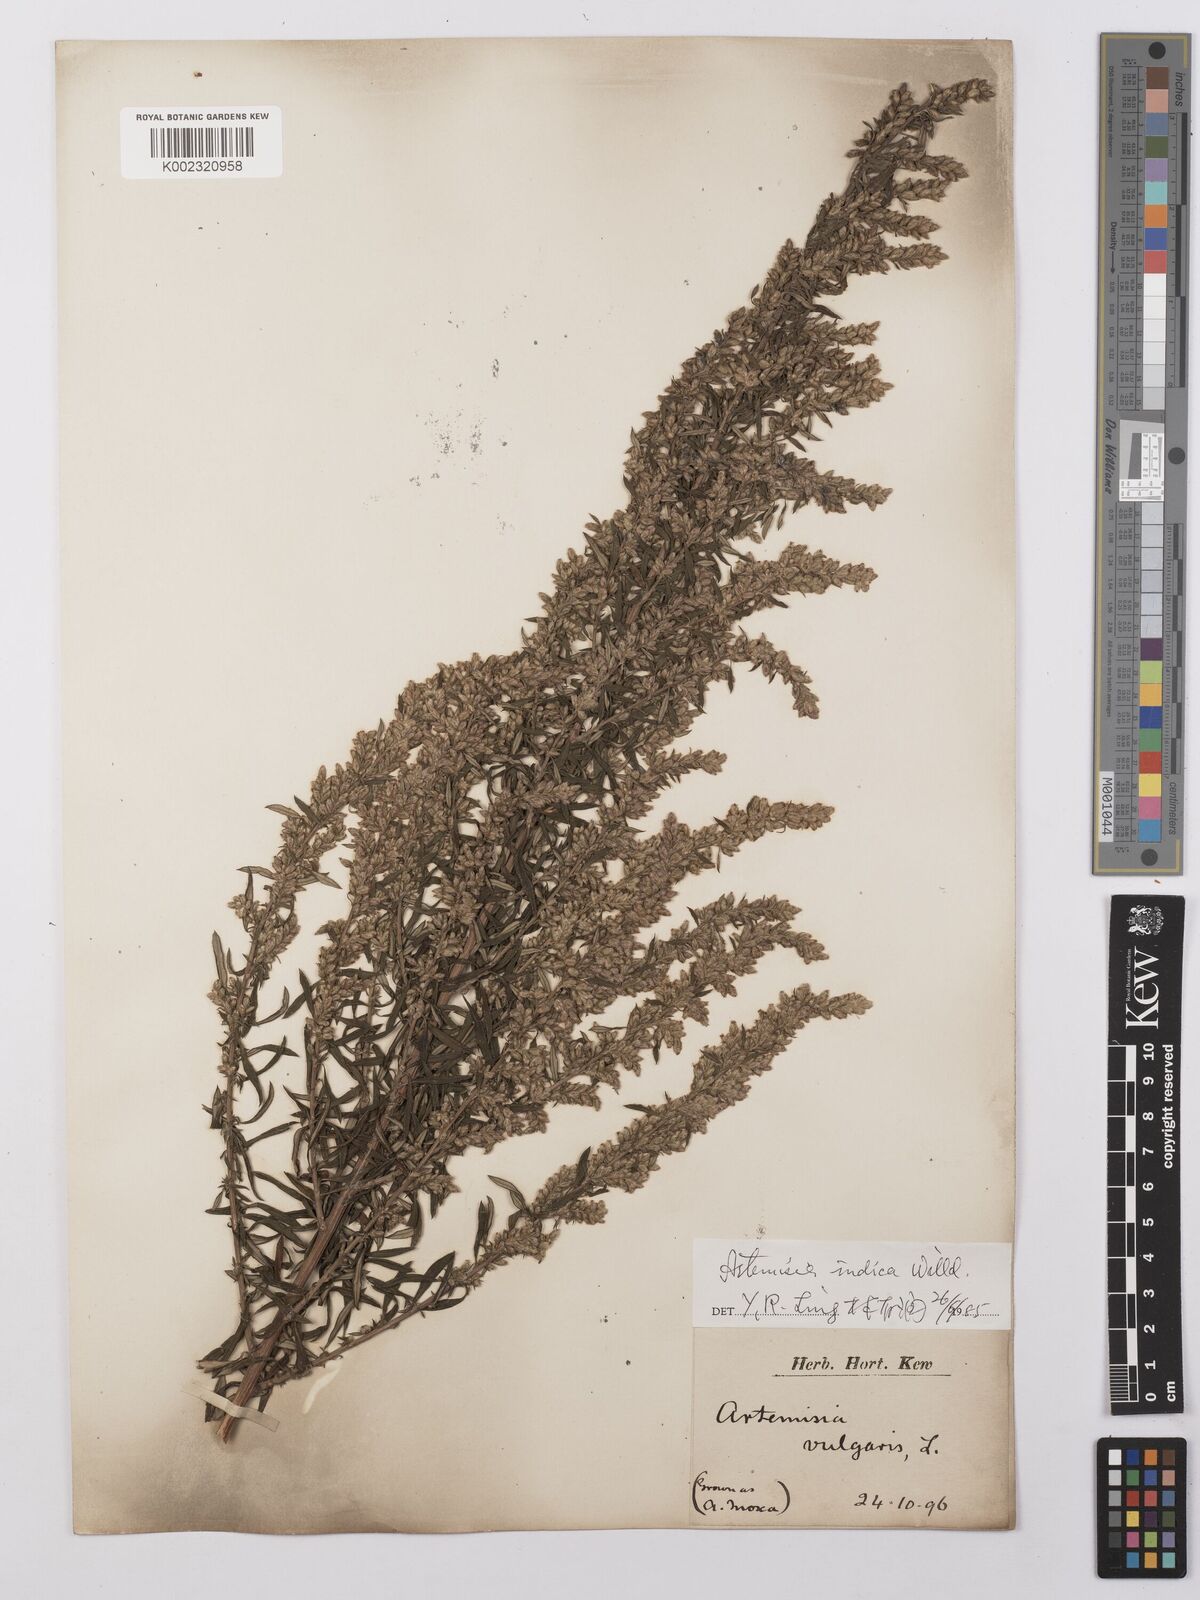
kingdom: Plantae
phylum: Tracheophyta
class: Magnoliopsida
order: Asterales
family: Asteraceae
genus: Artemisia
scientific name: Artemisia vulgaris
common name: Mugwort
